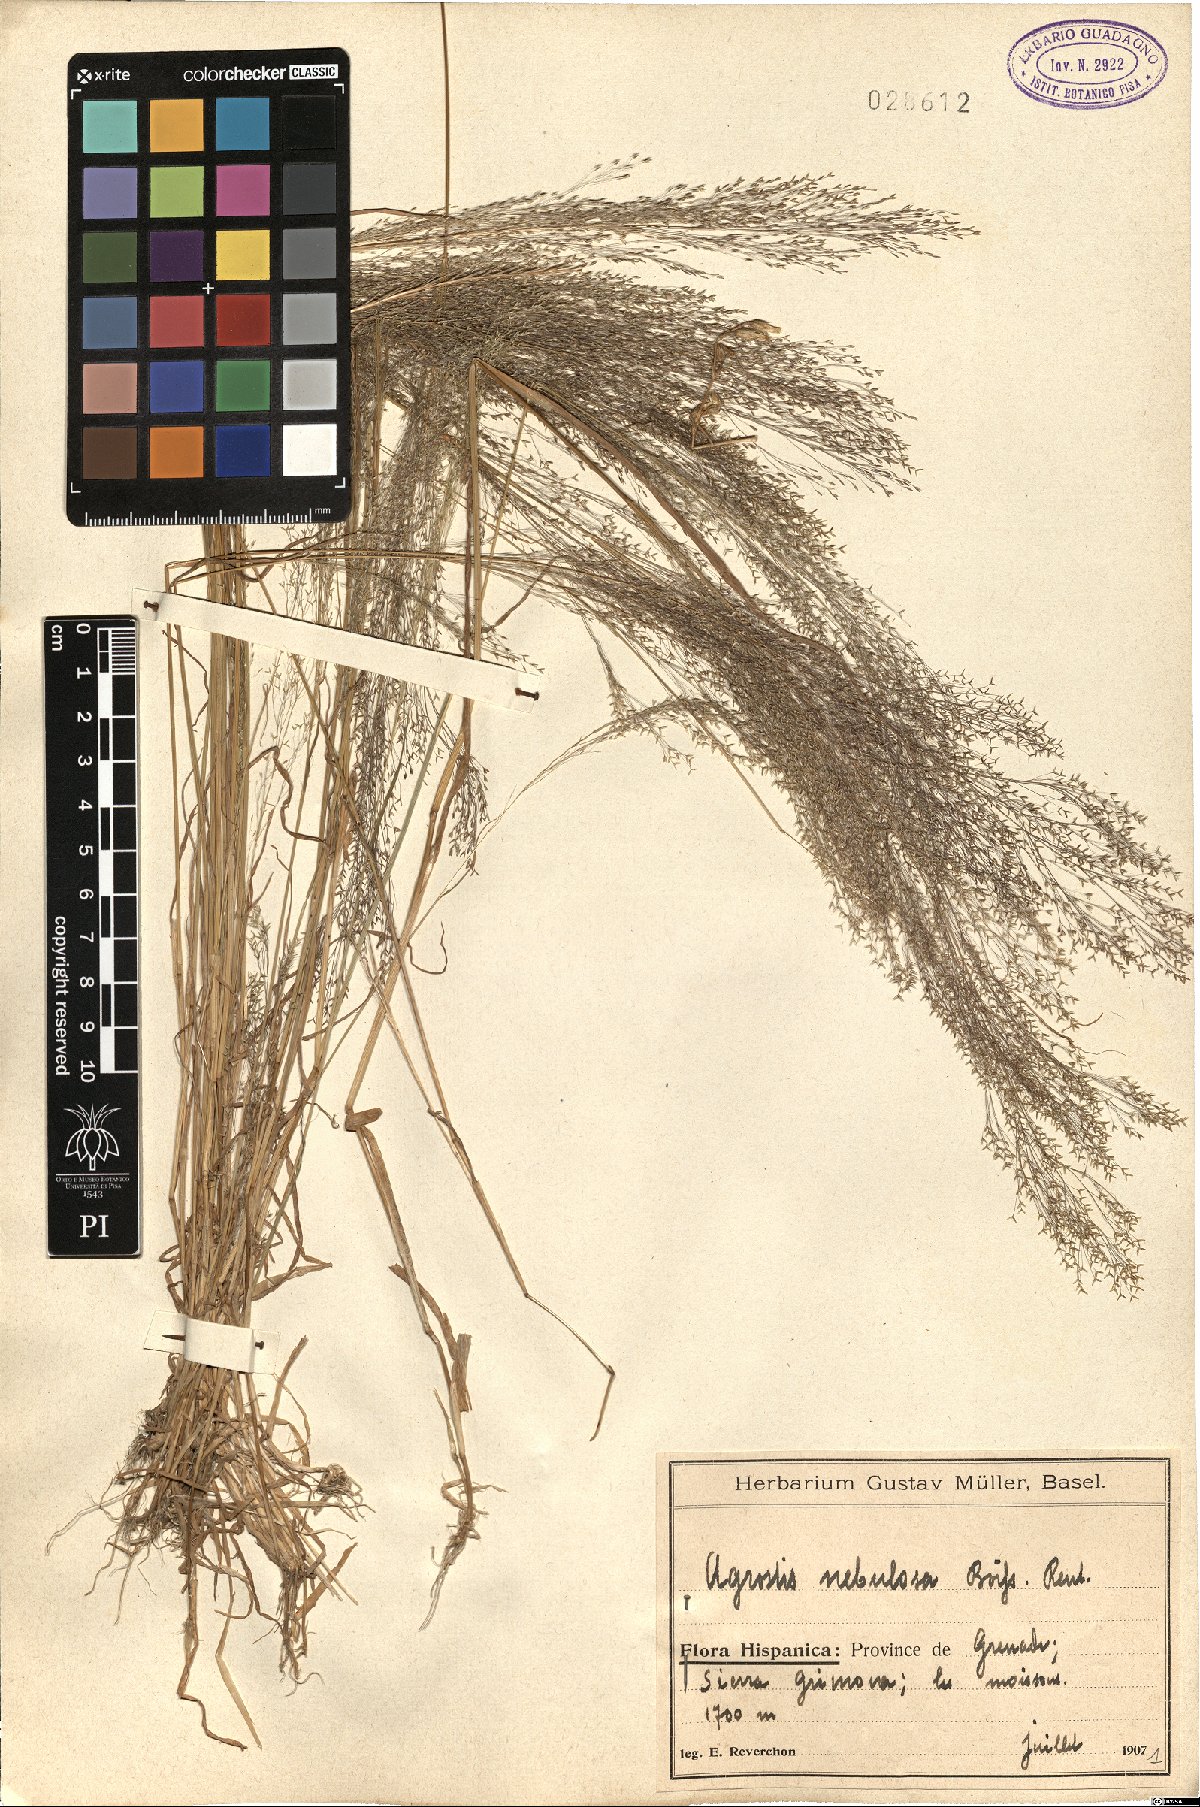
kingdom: Plantae
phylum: Tracheophyta
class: Liliopsida
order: Poales
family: Poaceae
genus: Agrostis
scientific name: Agrostis nebulosa
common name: Cloud grass
